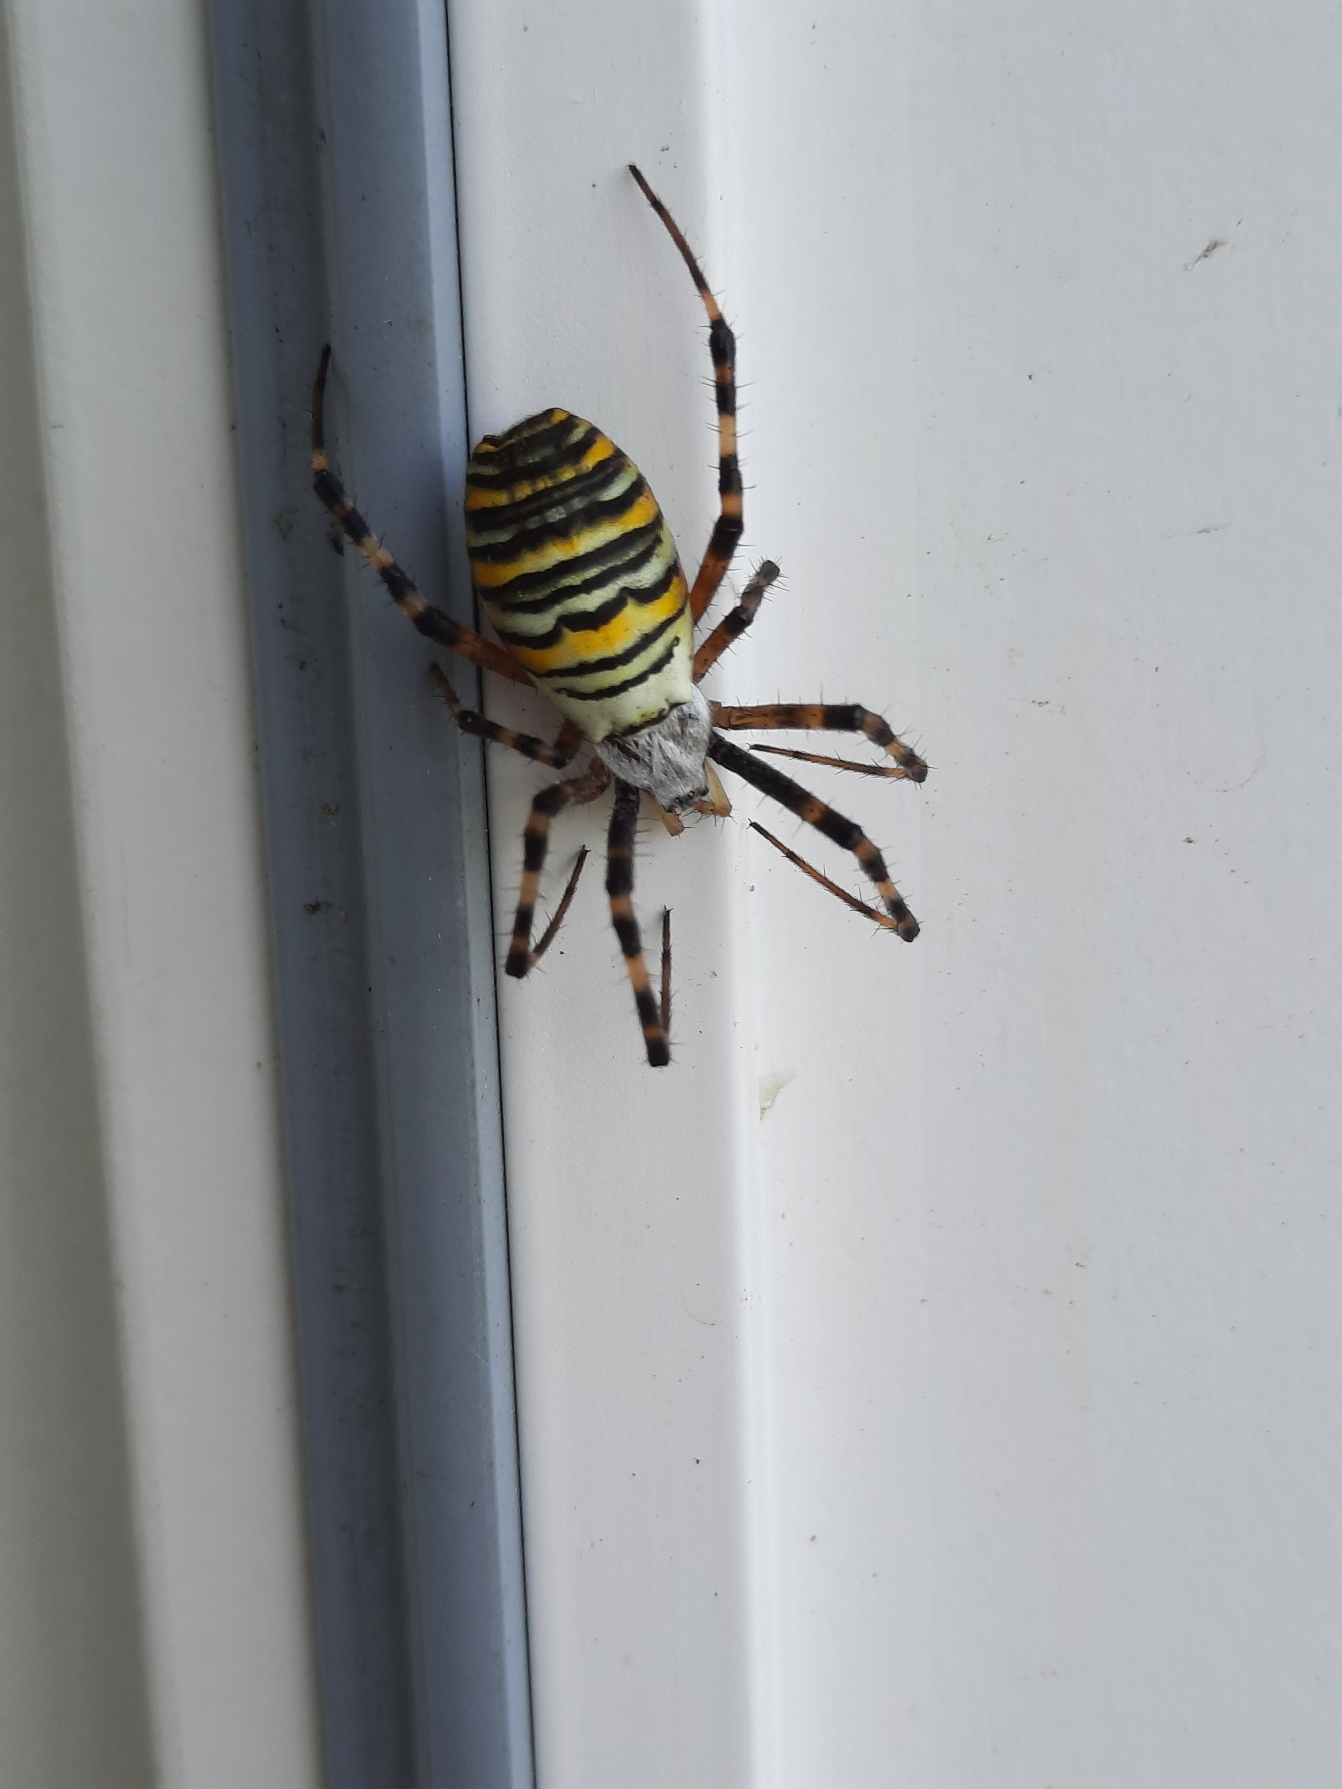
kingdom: Animalia
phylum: Arthropoda
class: Arachnida
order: Araneae
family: Araneidae
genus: Argiope
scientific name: Argiope bruennichi
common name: Hvepseedderkop
